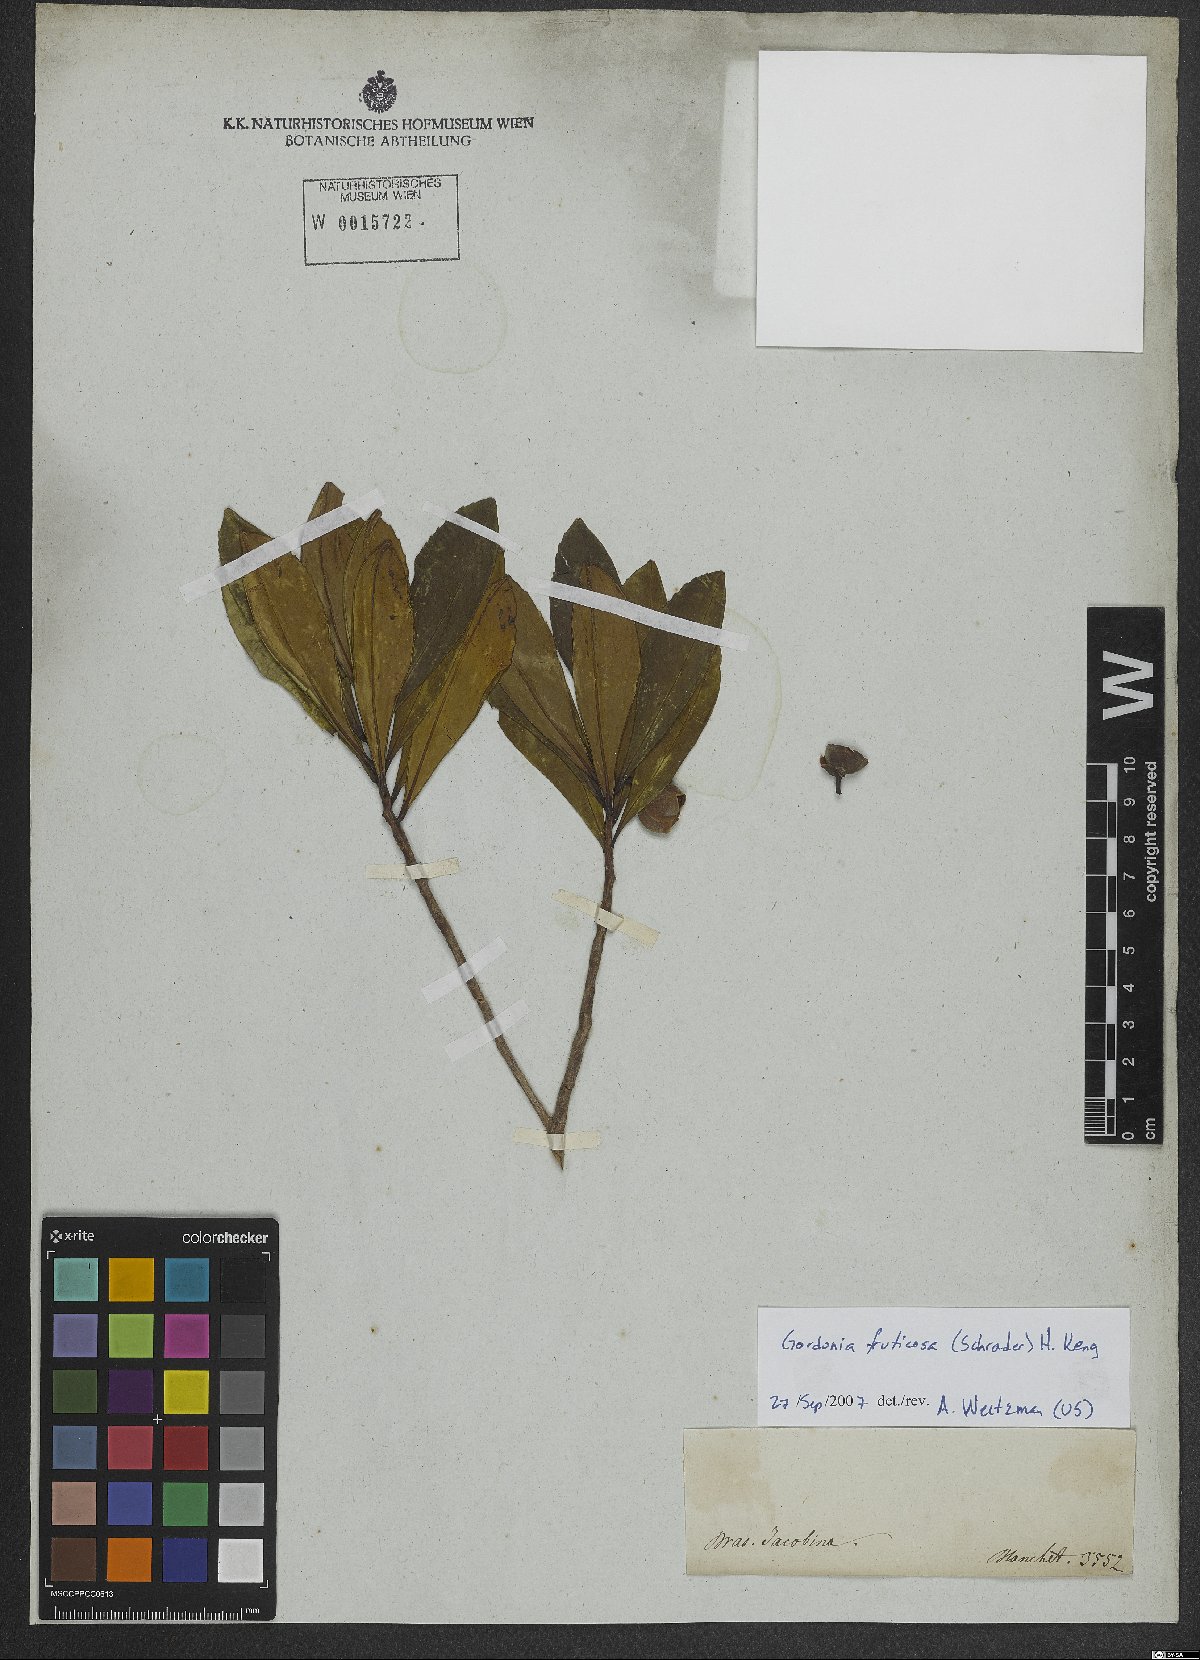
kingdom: Plantae
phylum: Tracheophyta
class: Magnoliopsida
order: Ericales
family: Theaceae
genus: Gordonia
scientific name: Gordonia fruticosa
